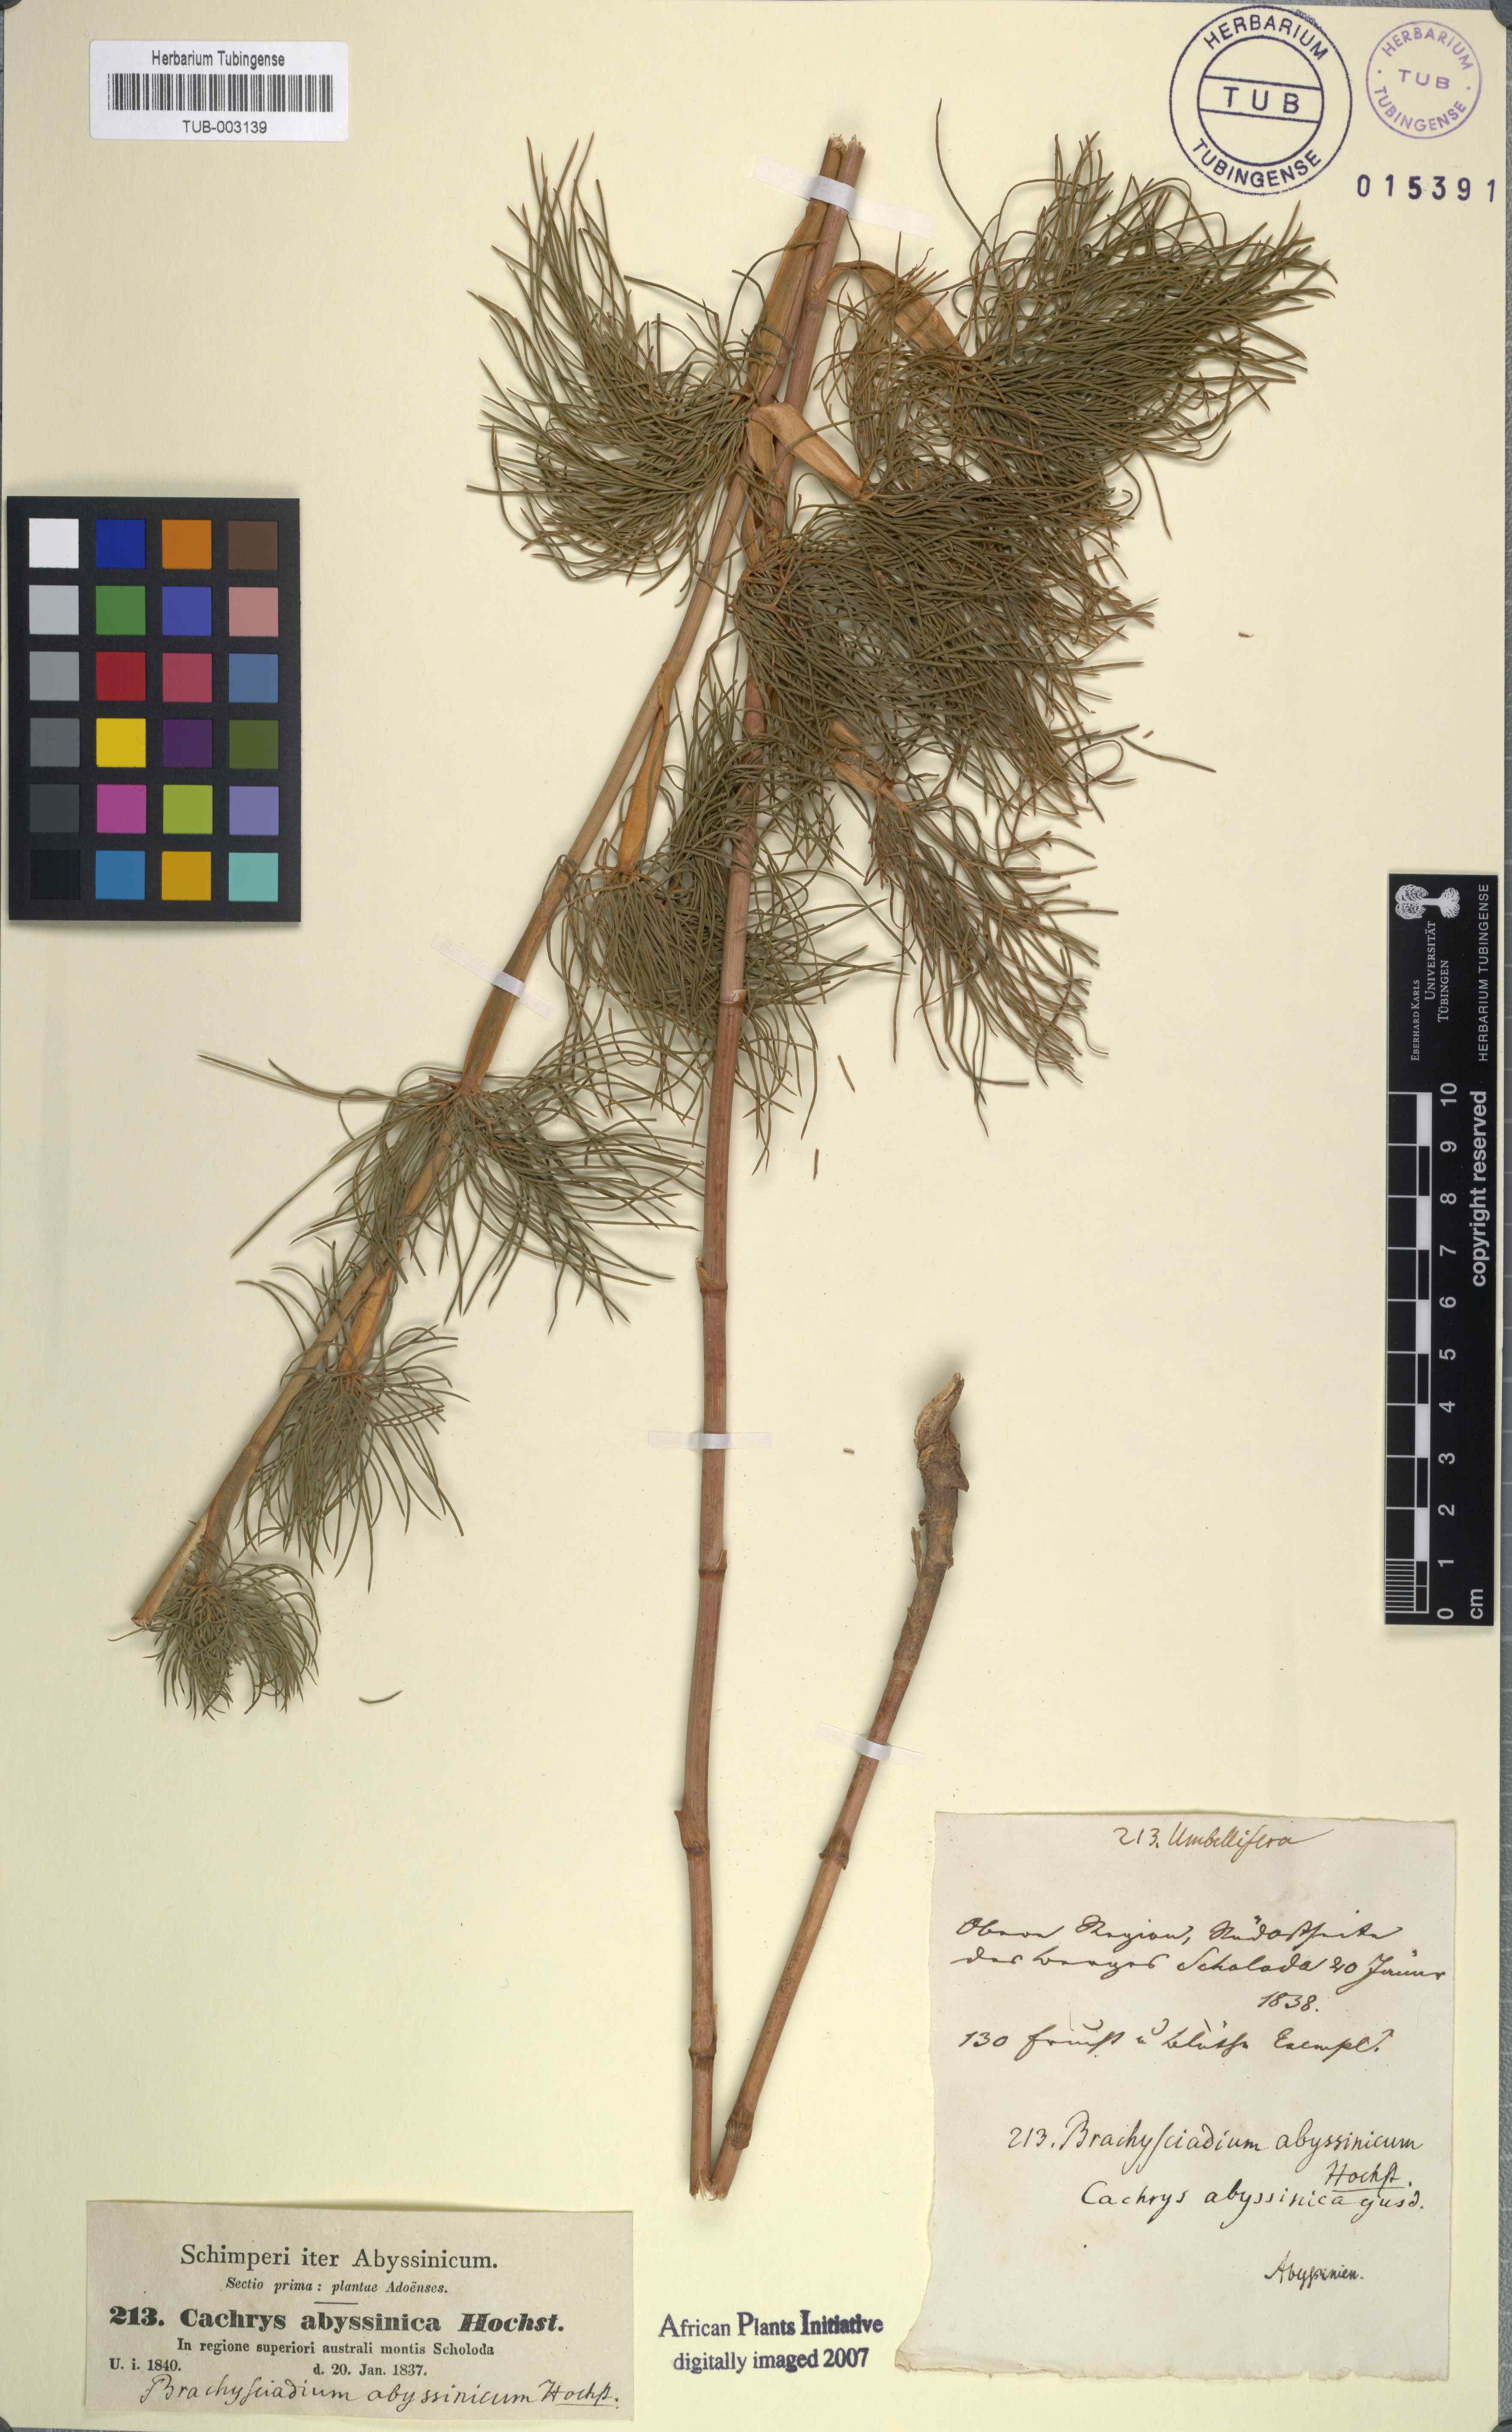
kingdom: Plantae
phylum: Tracheophyta
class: Magnoliopsida
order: Apiales
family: Apiaceae
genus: Diplolophium
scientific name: Diplolophium africanum
